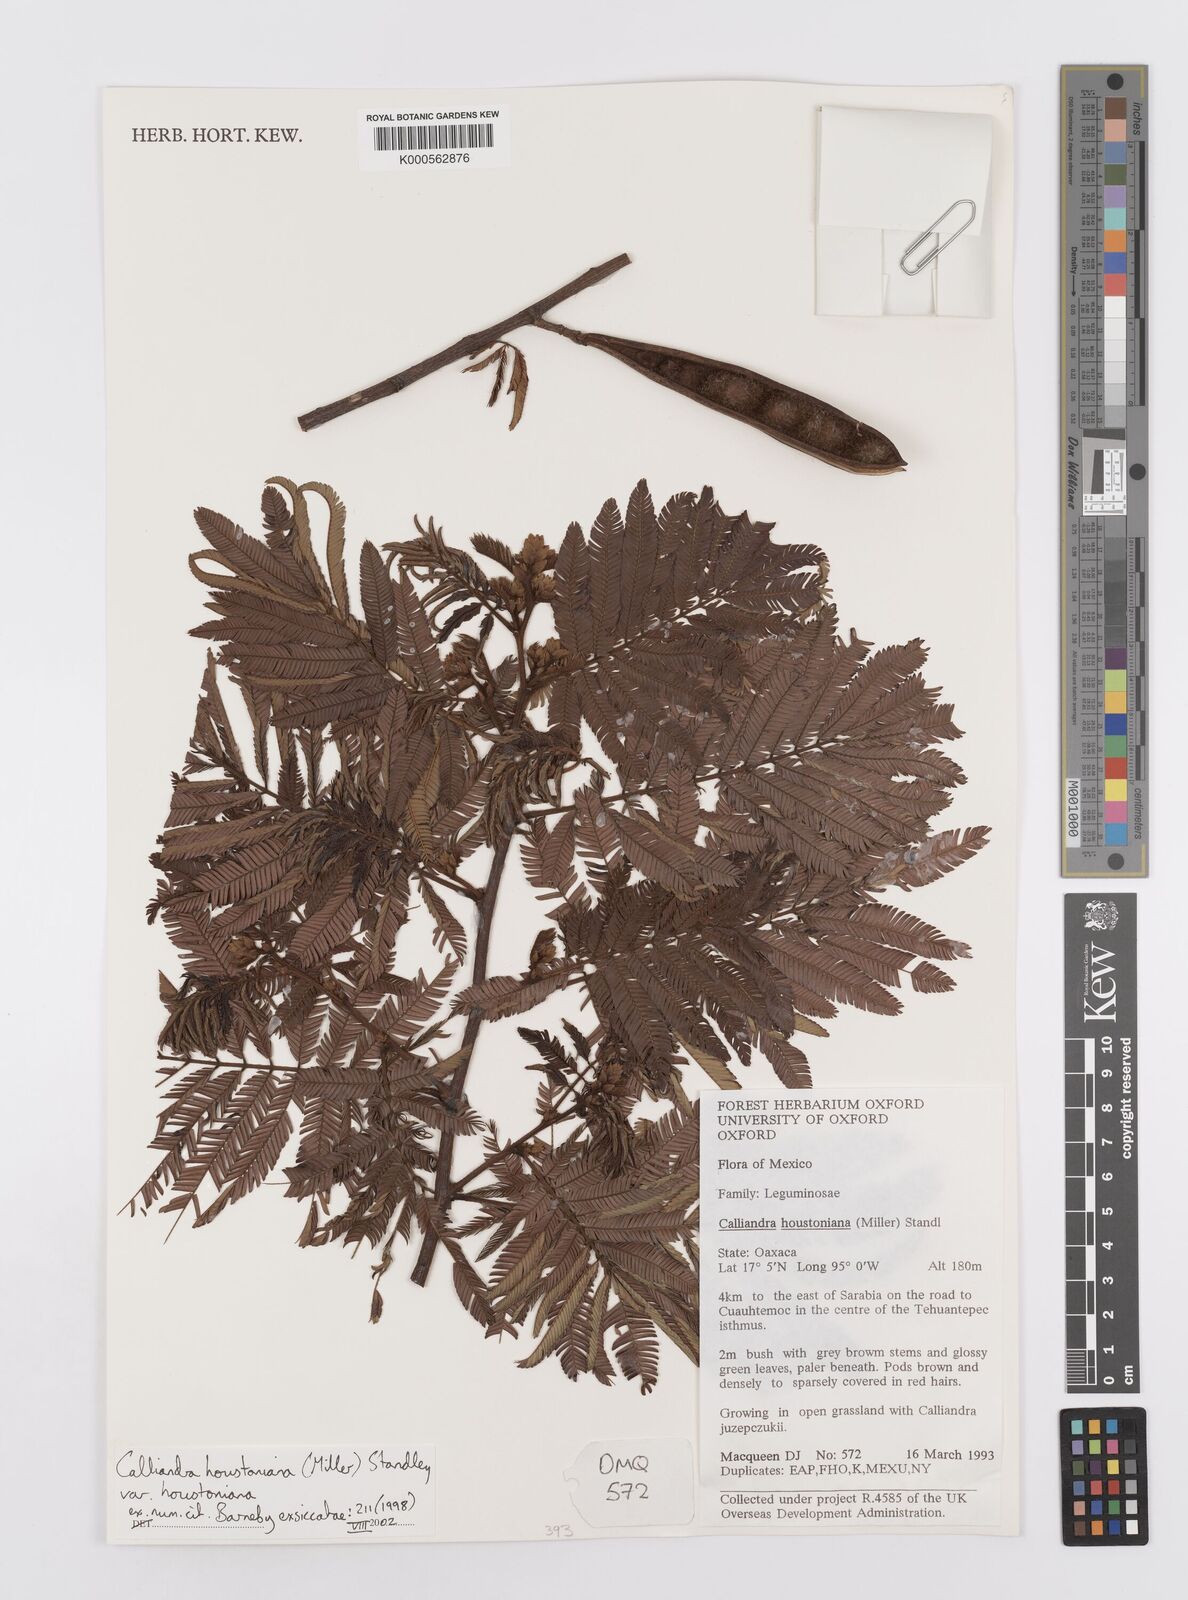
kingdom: Plantae
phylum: Tracheophyta
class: Magnoliopsida
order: Fabales
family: Fabaceae
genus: Calliandra
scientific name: Calliandra houstoniana
